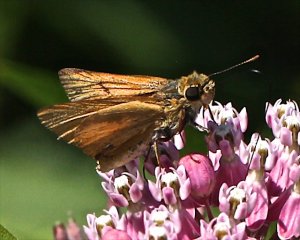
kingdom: Animalia
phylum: Arthropoda
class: Insecta
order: Lepidoptera
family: Hesperiidae
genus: Atrytone
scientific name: Atrytone delaware
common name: Delaware Skipper
